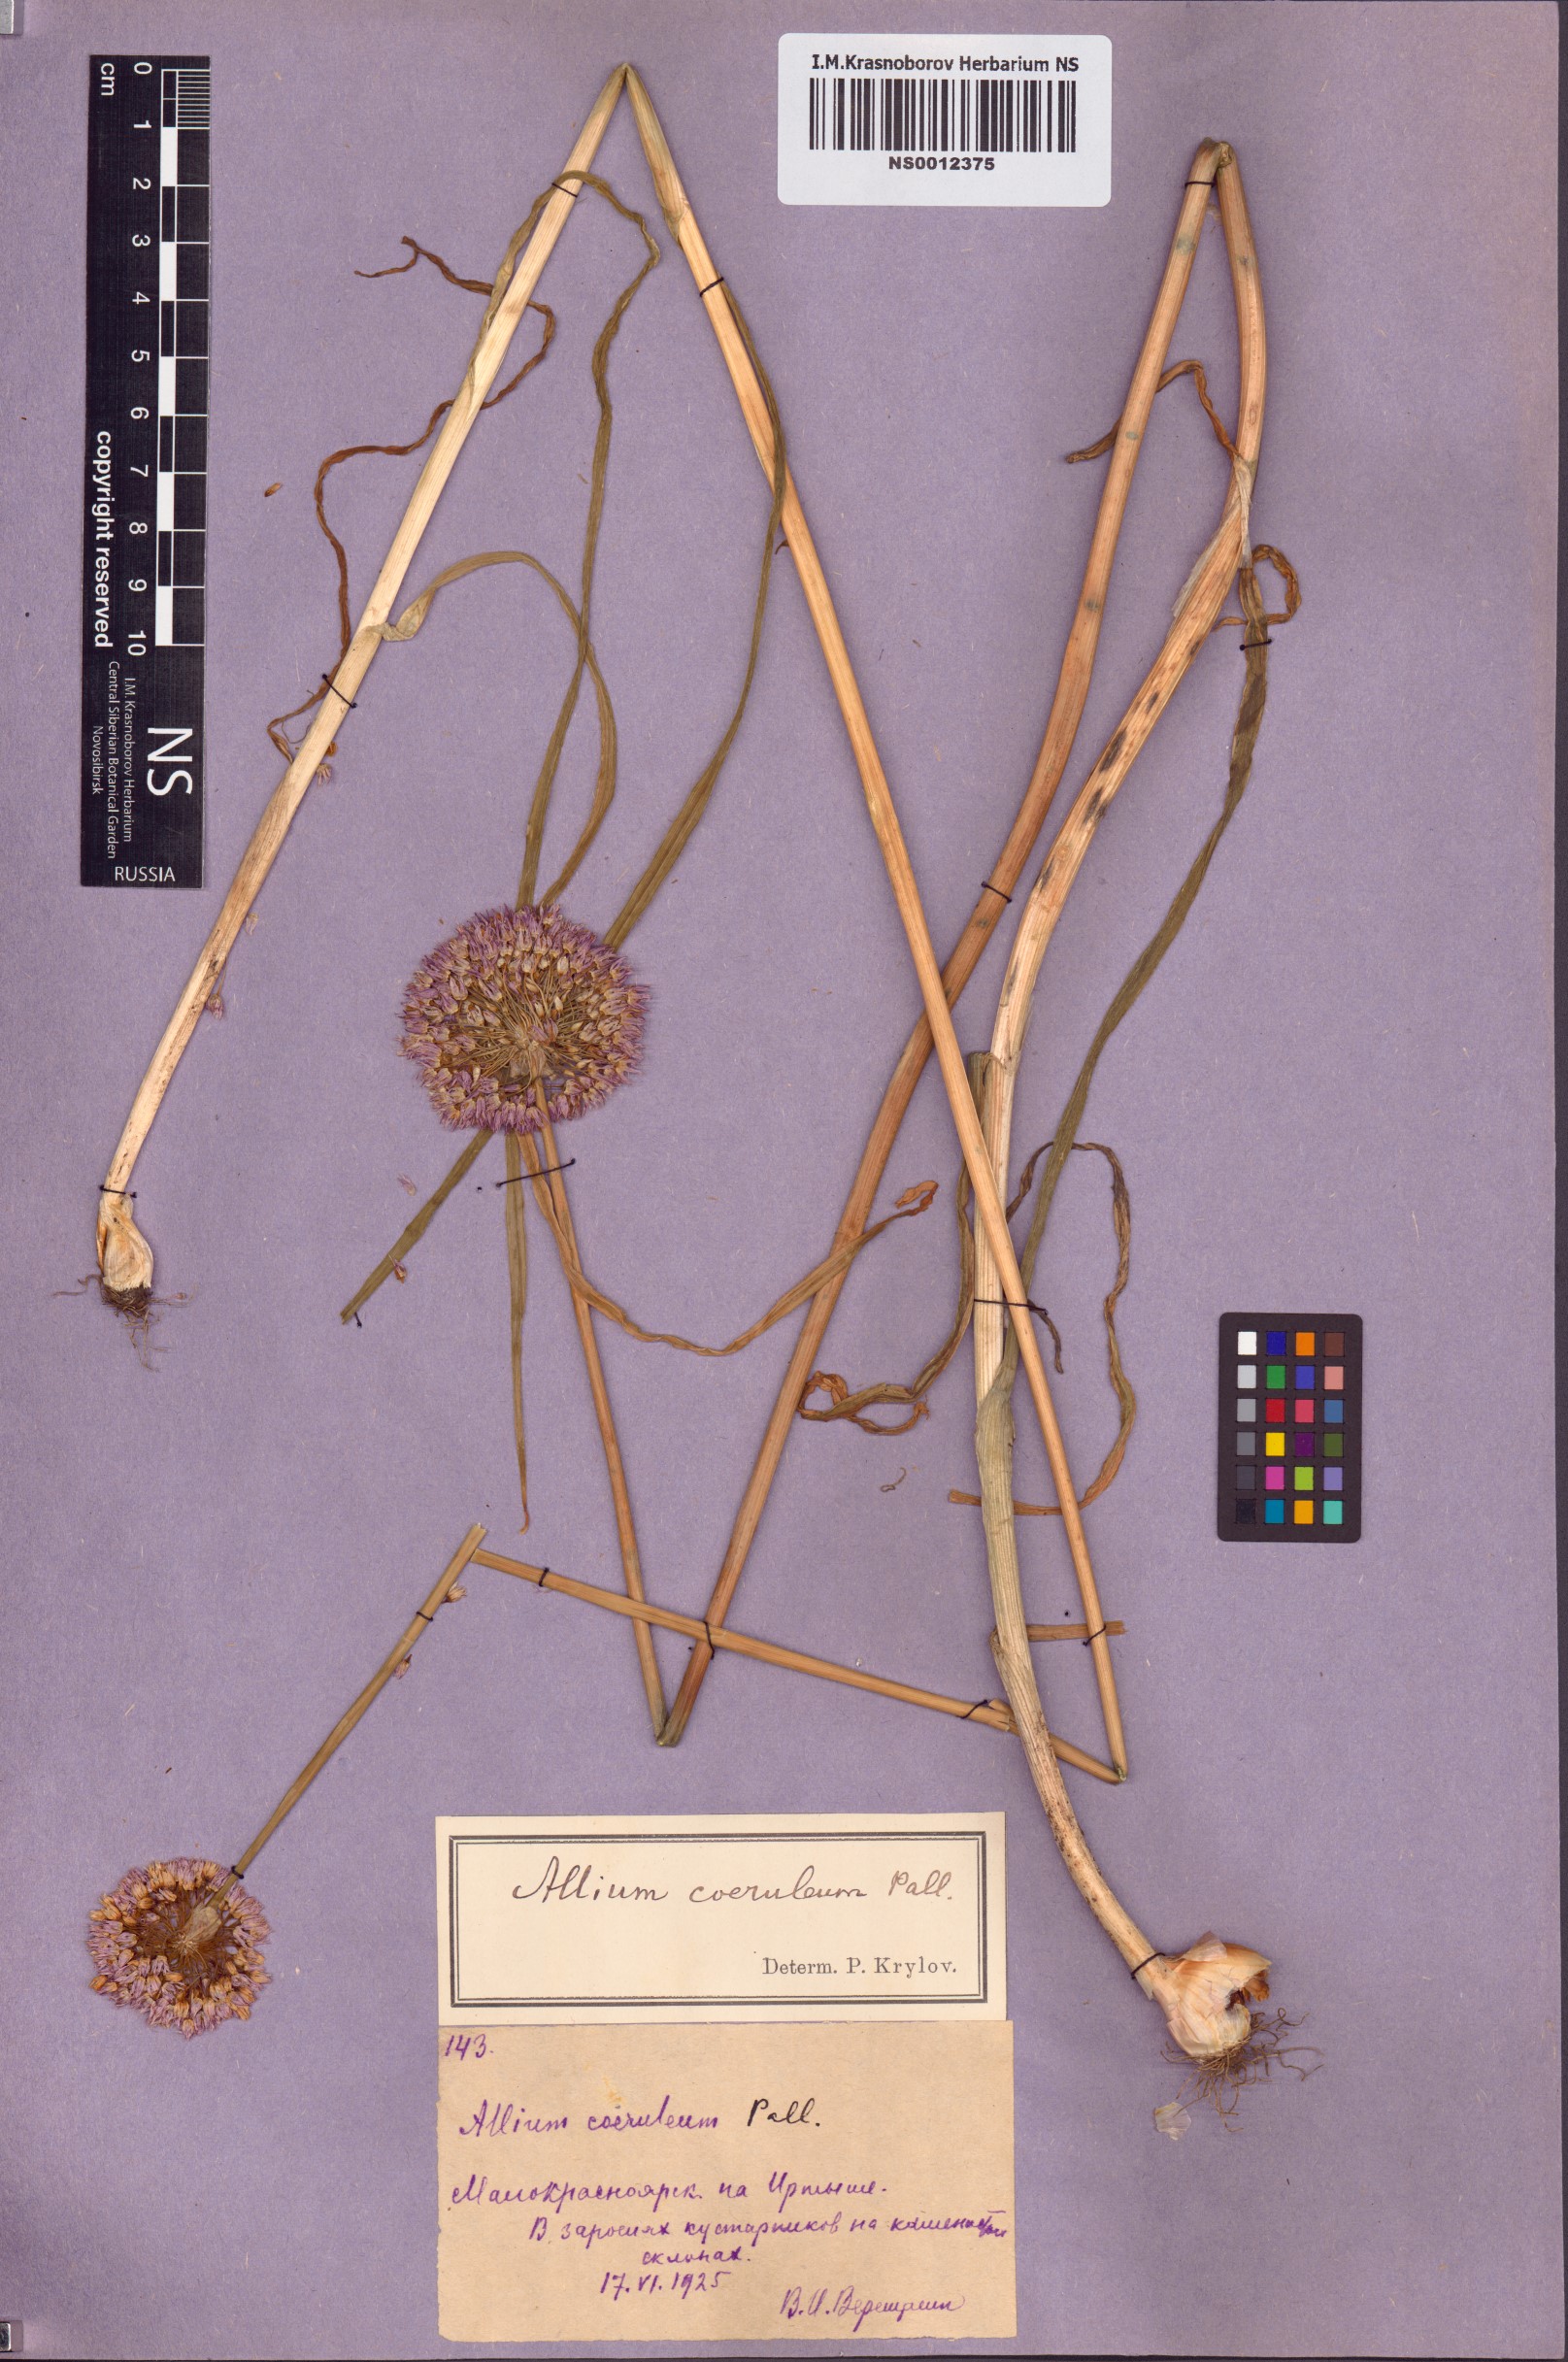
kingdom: Plantae
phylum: Tracheophyta
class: Liliopsida
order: Asparagales
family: Amaryllidaceae
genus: Allium
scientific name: Allium caeruleum
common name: Blue-of-the-heavens
